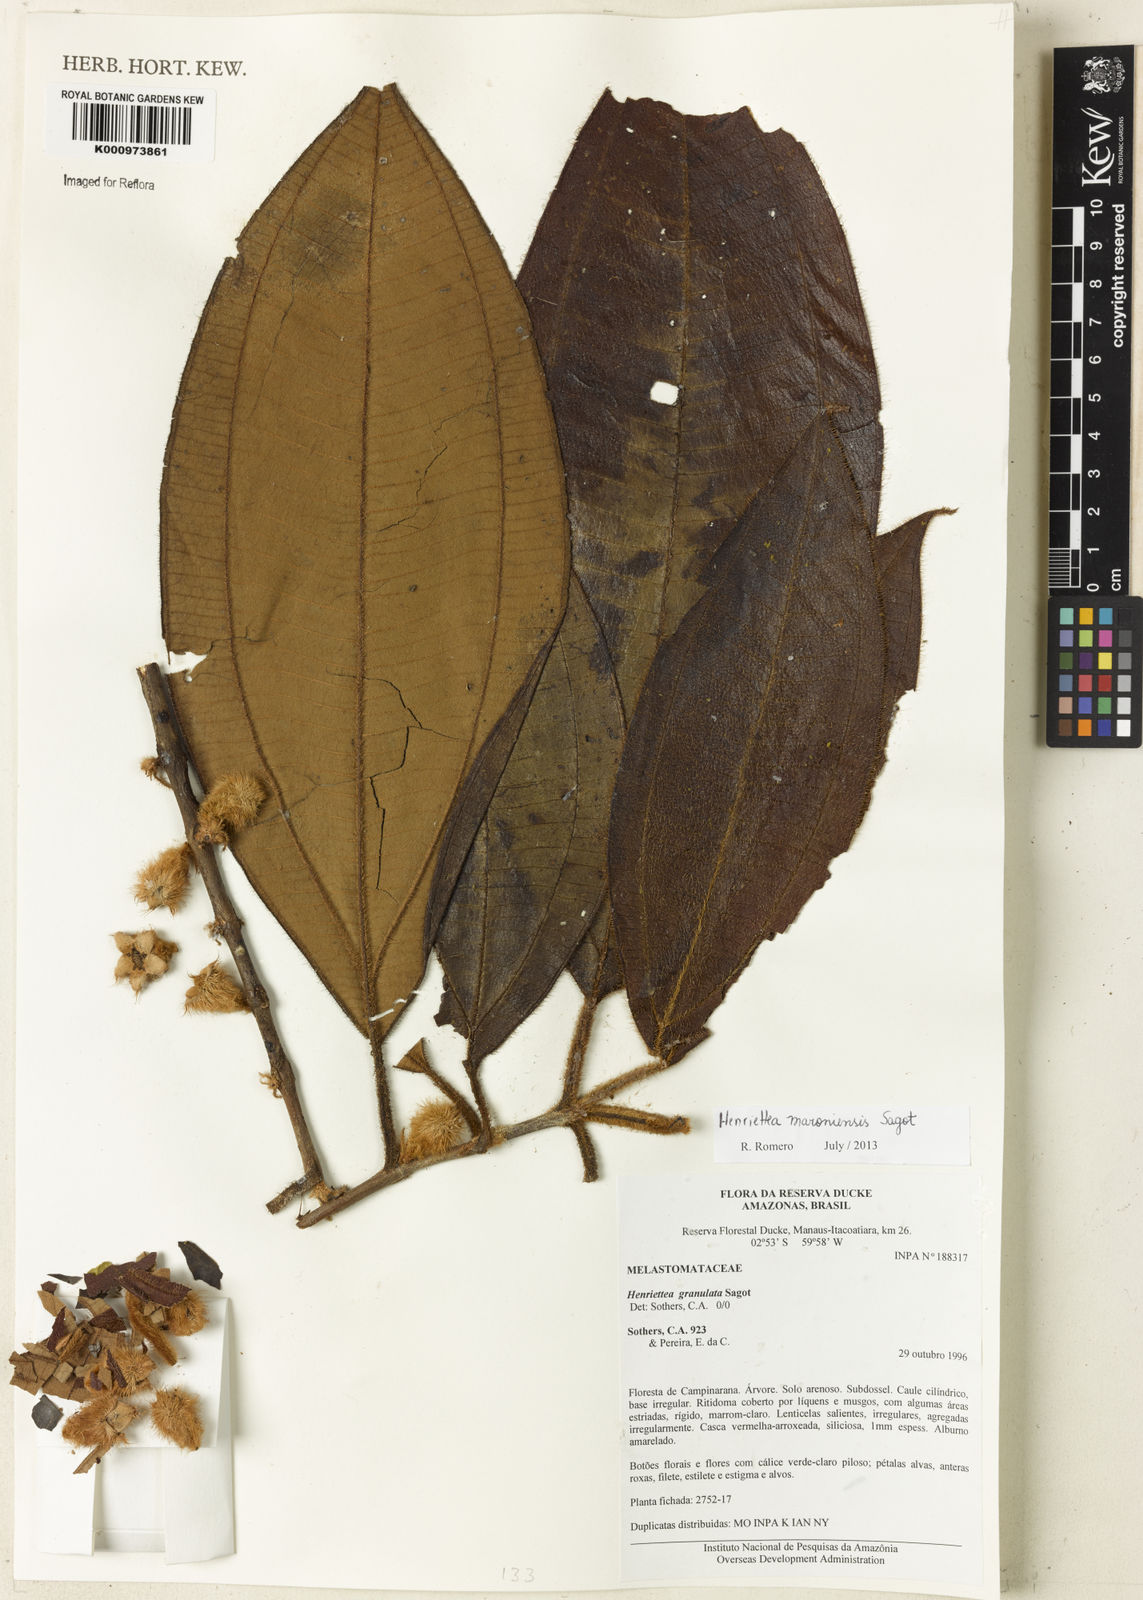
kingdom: Plantae
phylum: Tracheophyta
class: Magnoliopsida
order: Myrtales
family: Melastomataceae
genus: Henriettea
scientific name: Henriettea maroniensis
